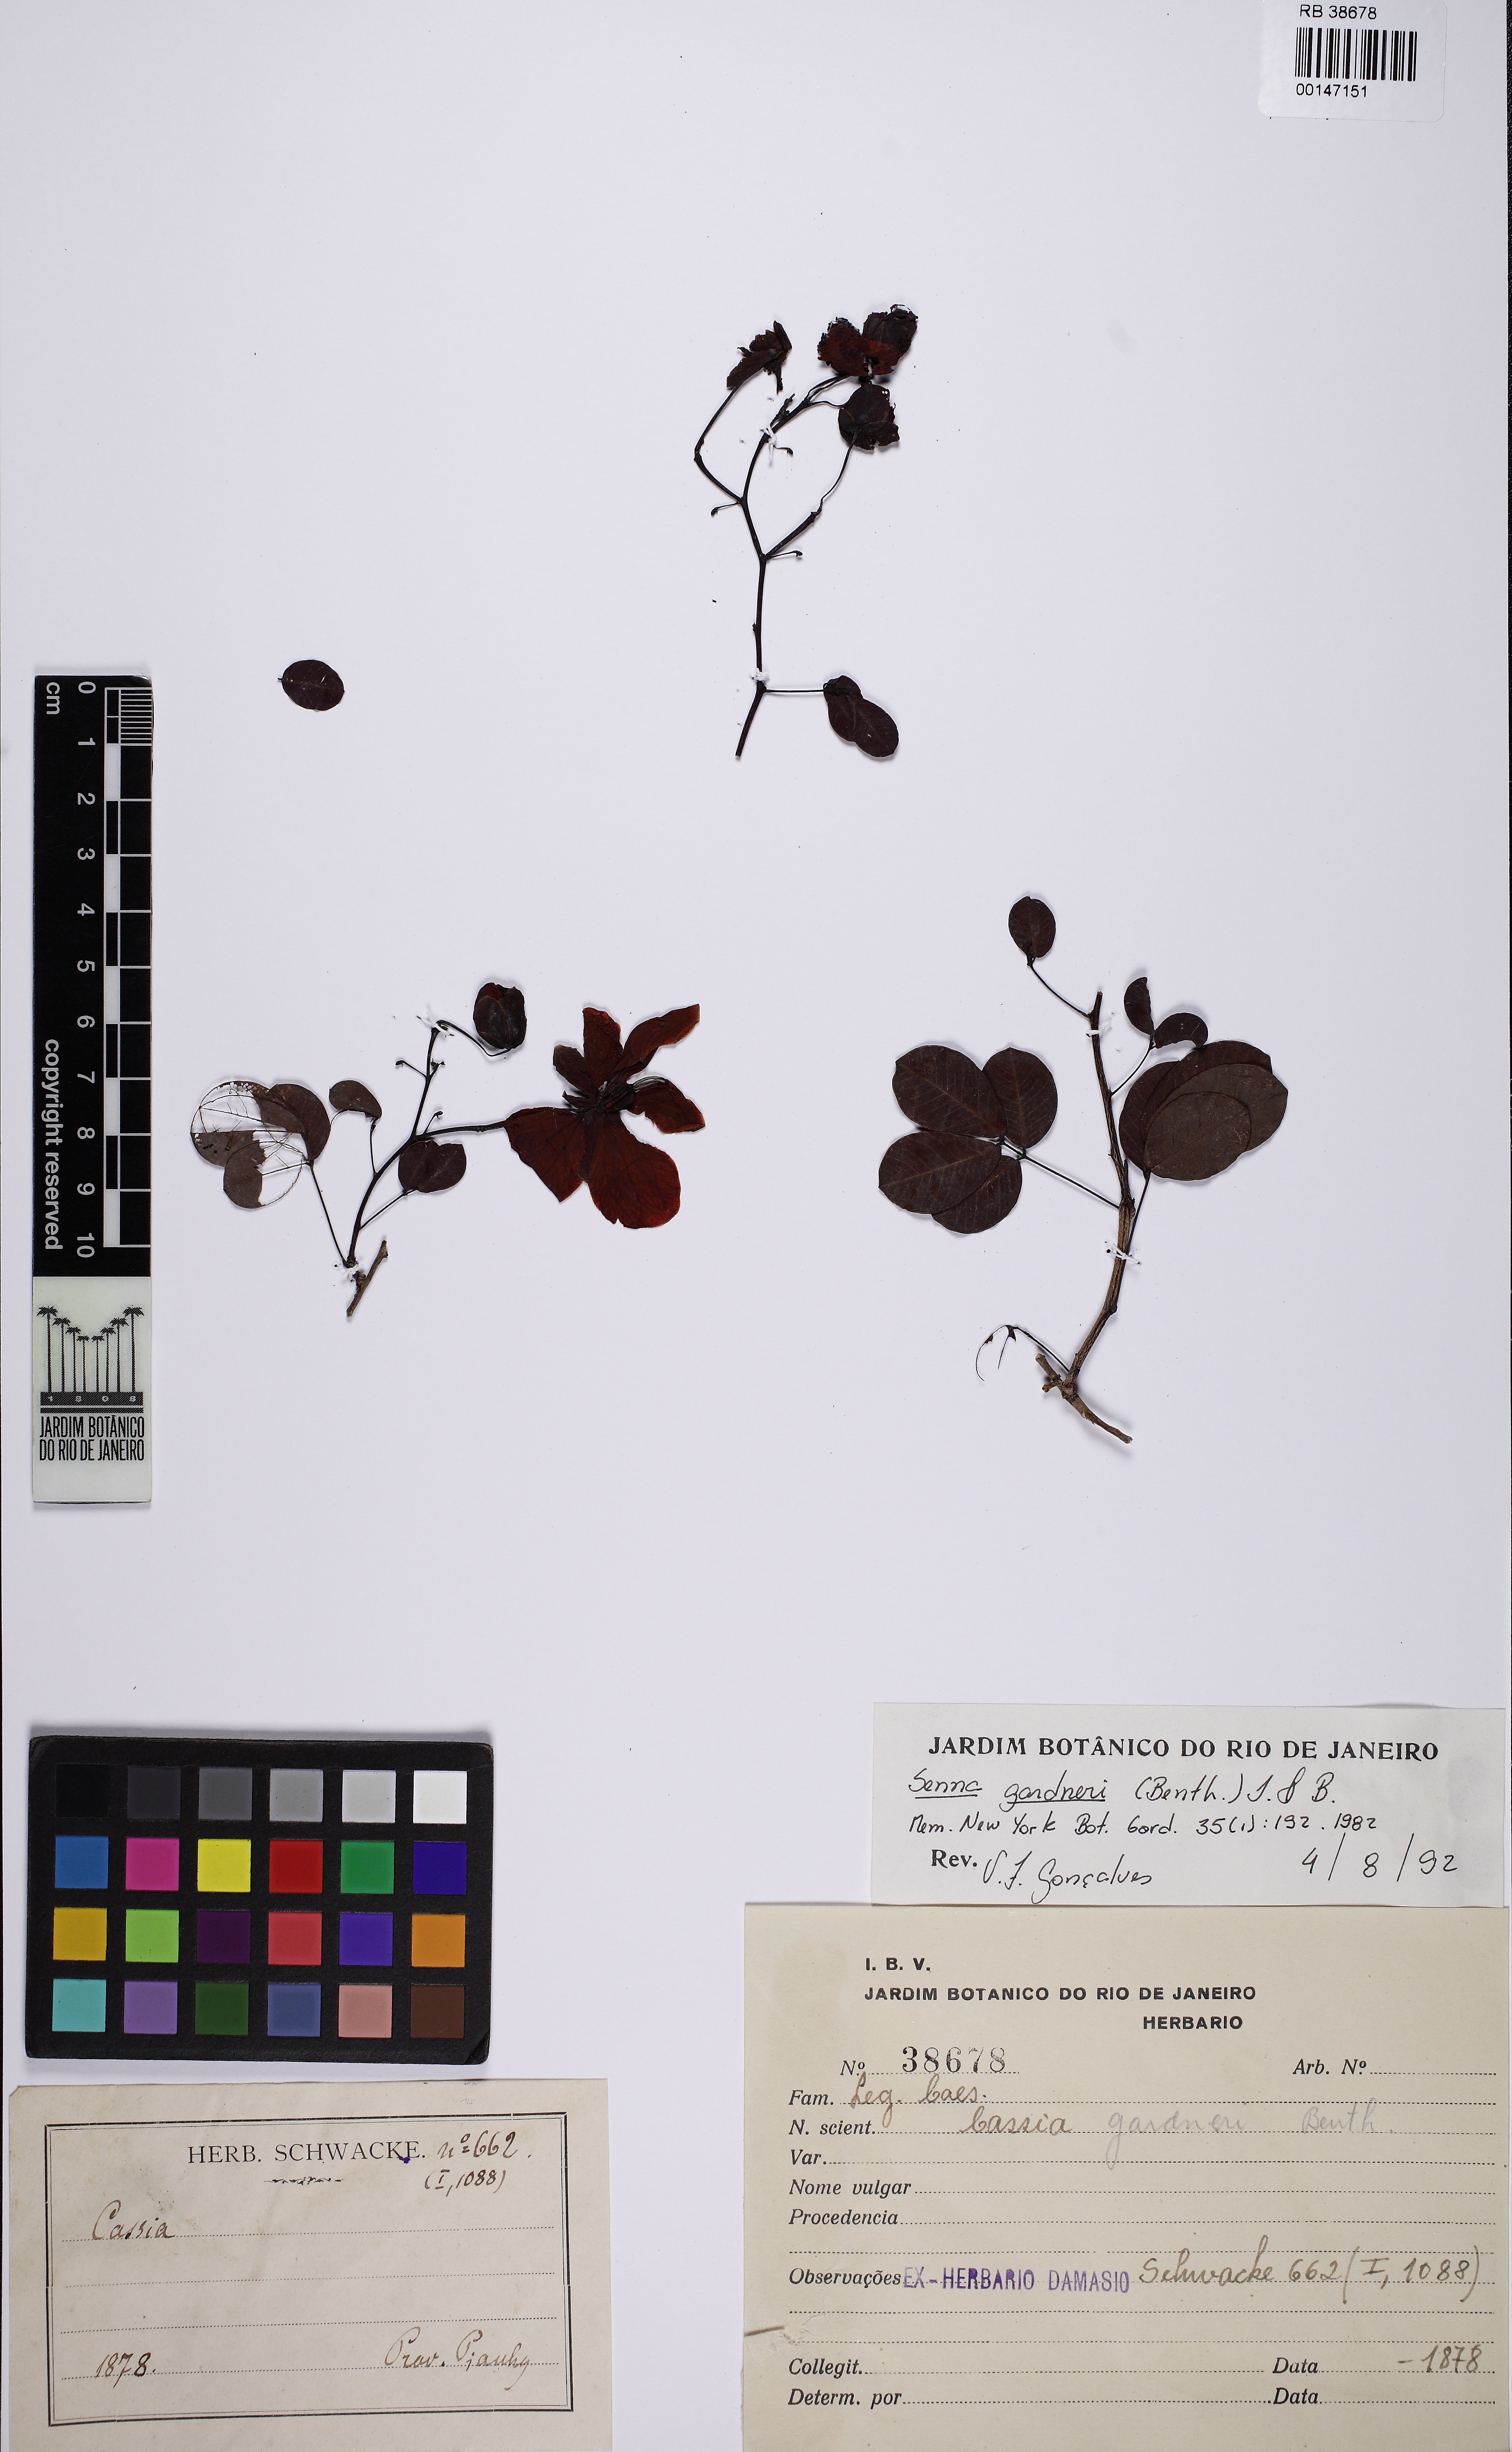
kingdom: Plantae
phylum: Tracheophyta
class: Magnoliopsida
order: Fabales
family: Fabaceae
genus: Senna
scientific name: Senna gardneri
